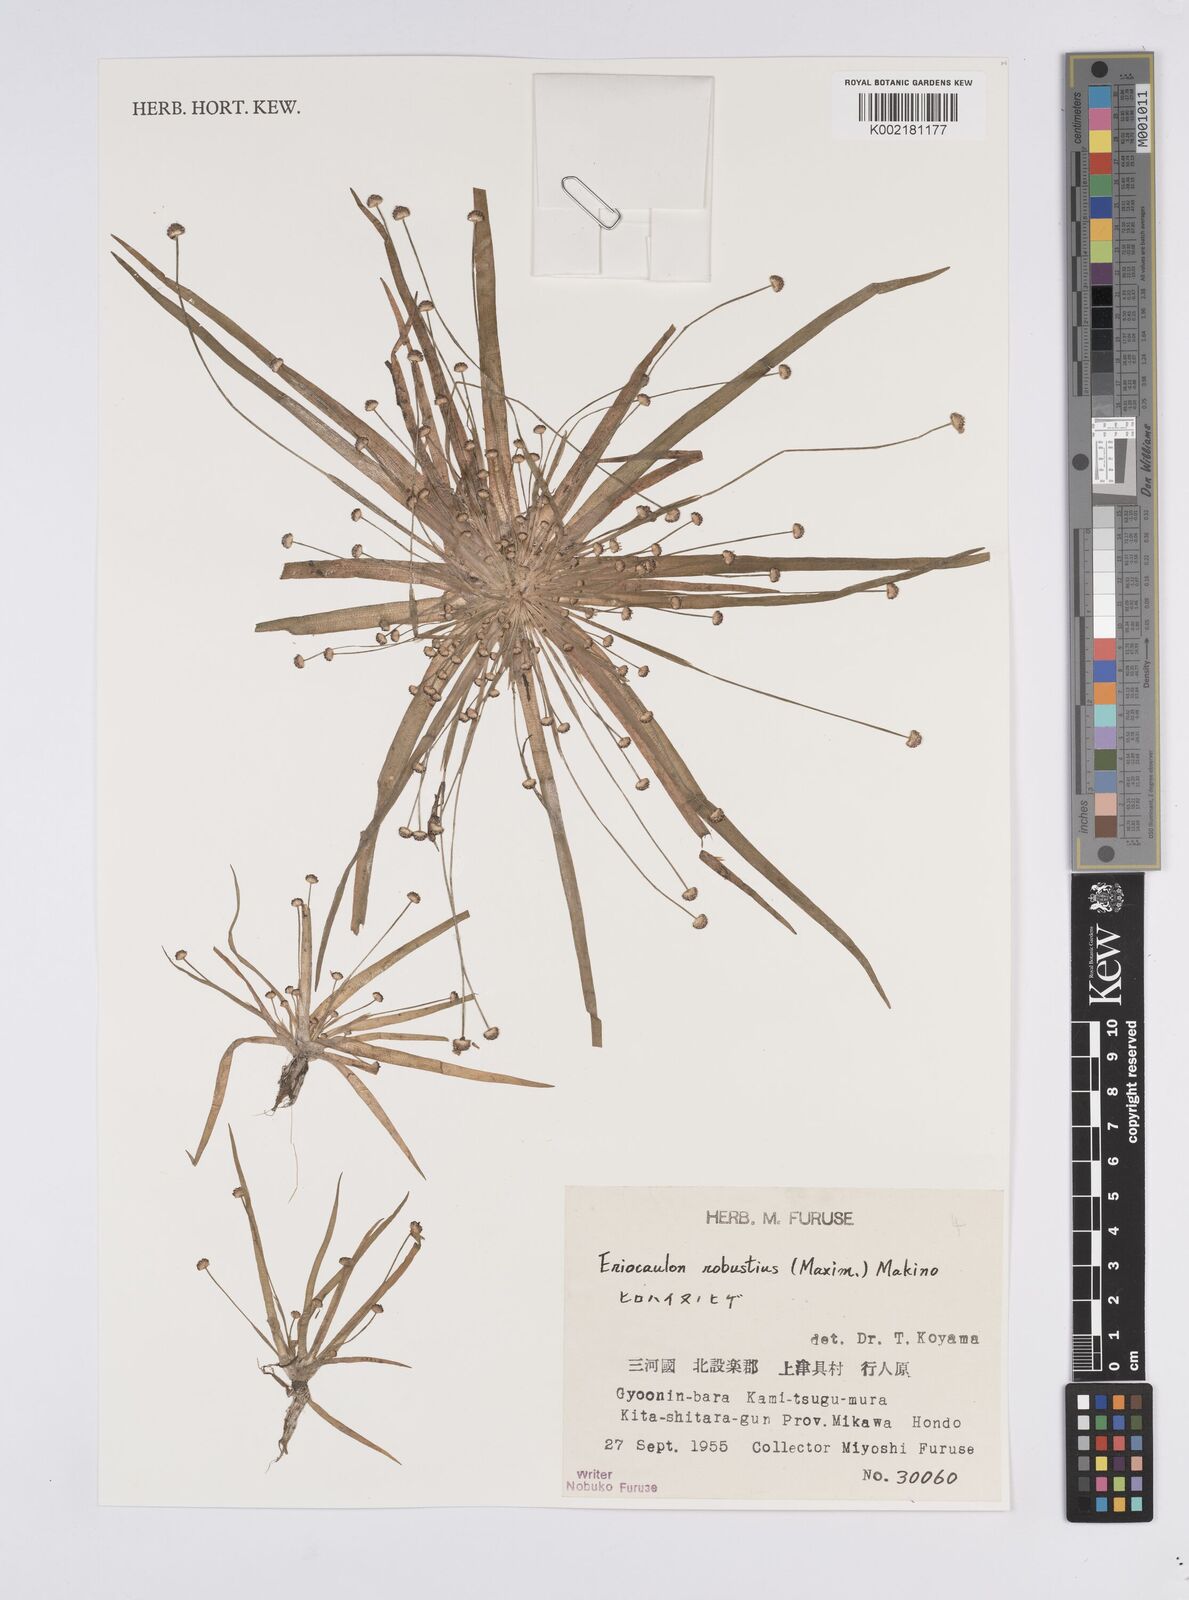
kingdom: Plantae
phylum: Tracheophyta
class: Liliopsida
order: Poales
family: Eriocaulaceae
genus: Eriocaulon
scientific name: Eriocaulon alpestre
